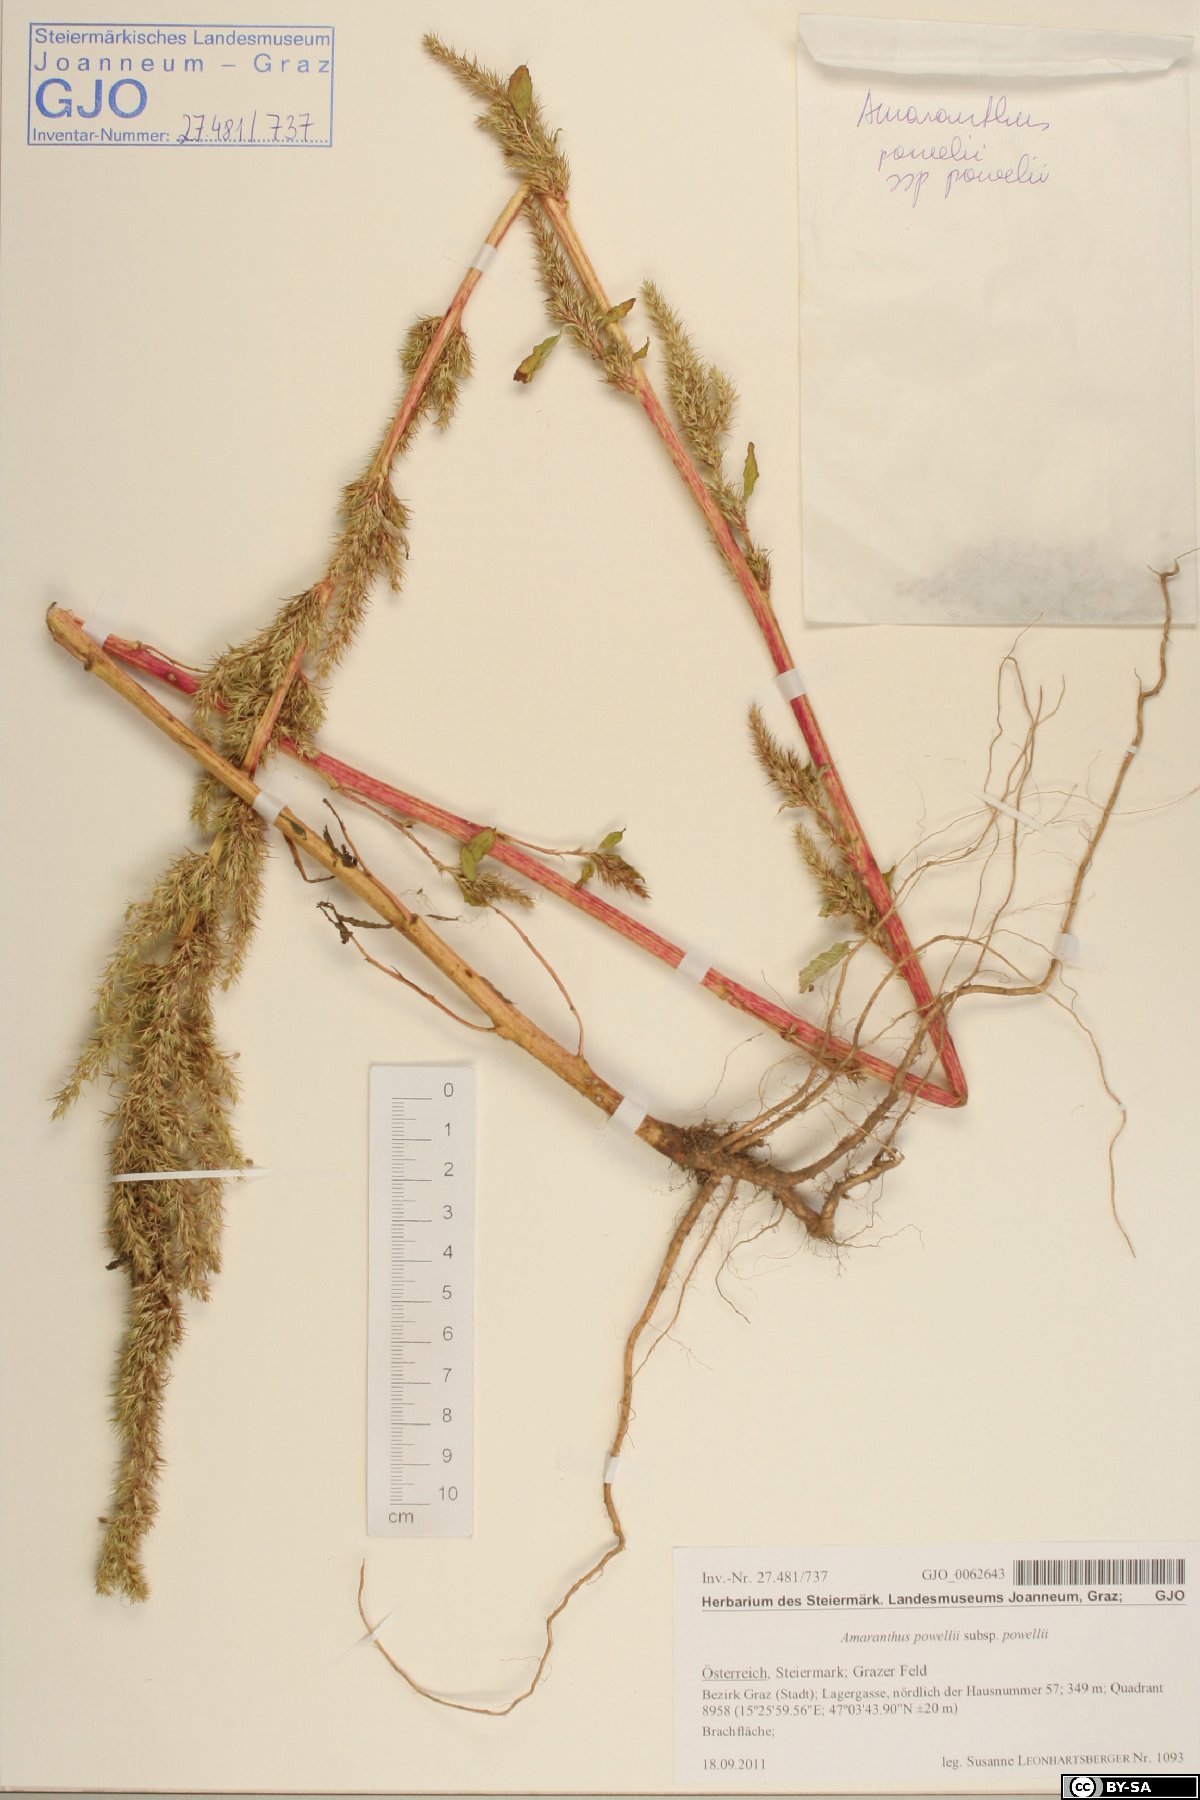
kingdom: Plantae
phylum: Tracheophyta
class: Magnoliopsida
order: Caryophyllales
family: Amaranthaceae
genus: Amaranthus
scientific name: Amaranthus powellii
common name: Powell's amaranth
